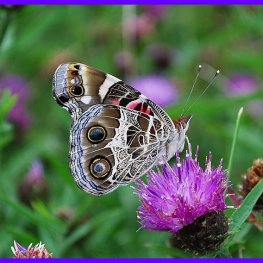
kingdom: Animalia
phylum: Arthropoda
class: Insecta
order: Lepidoptera
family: Nymphalidae
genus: Vanessa
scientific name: Vanessa virginiensis
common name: American Lady
